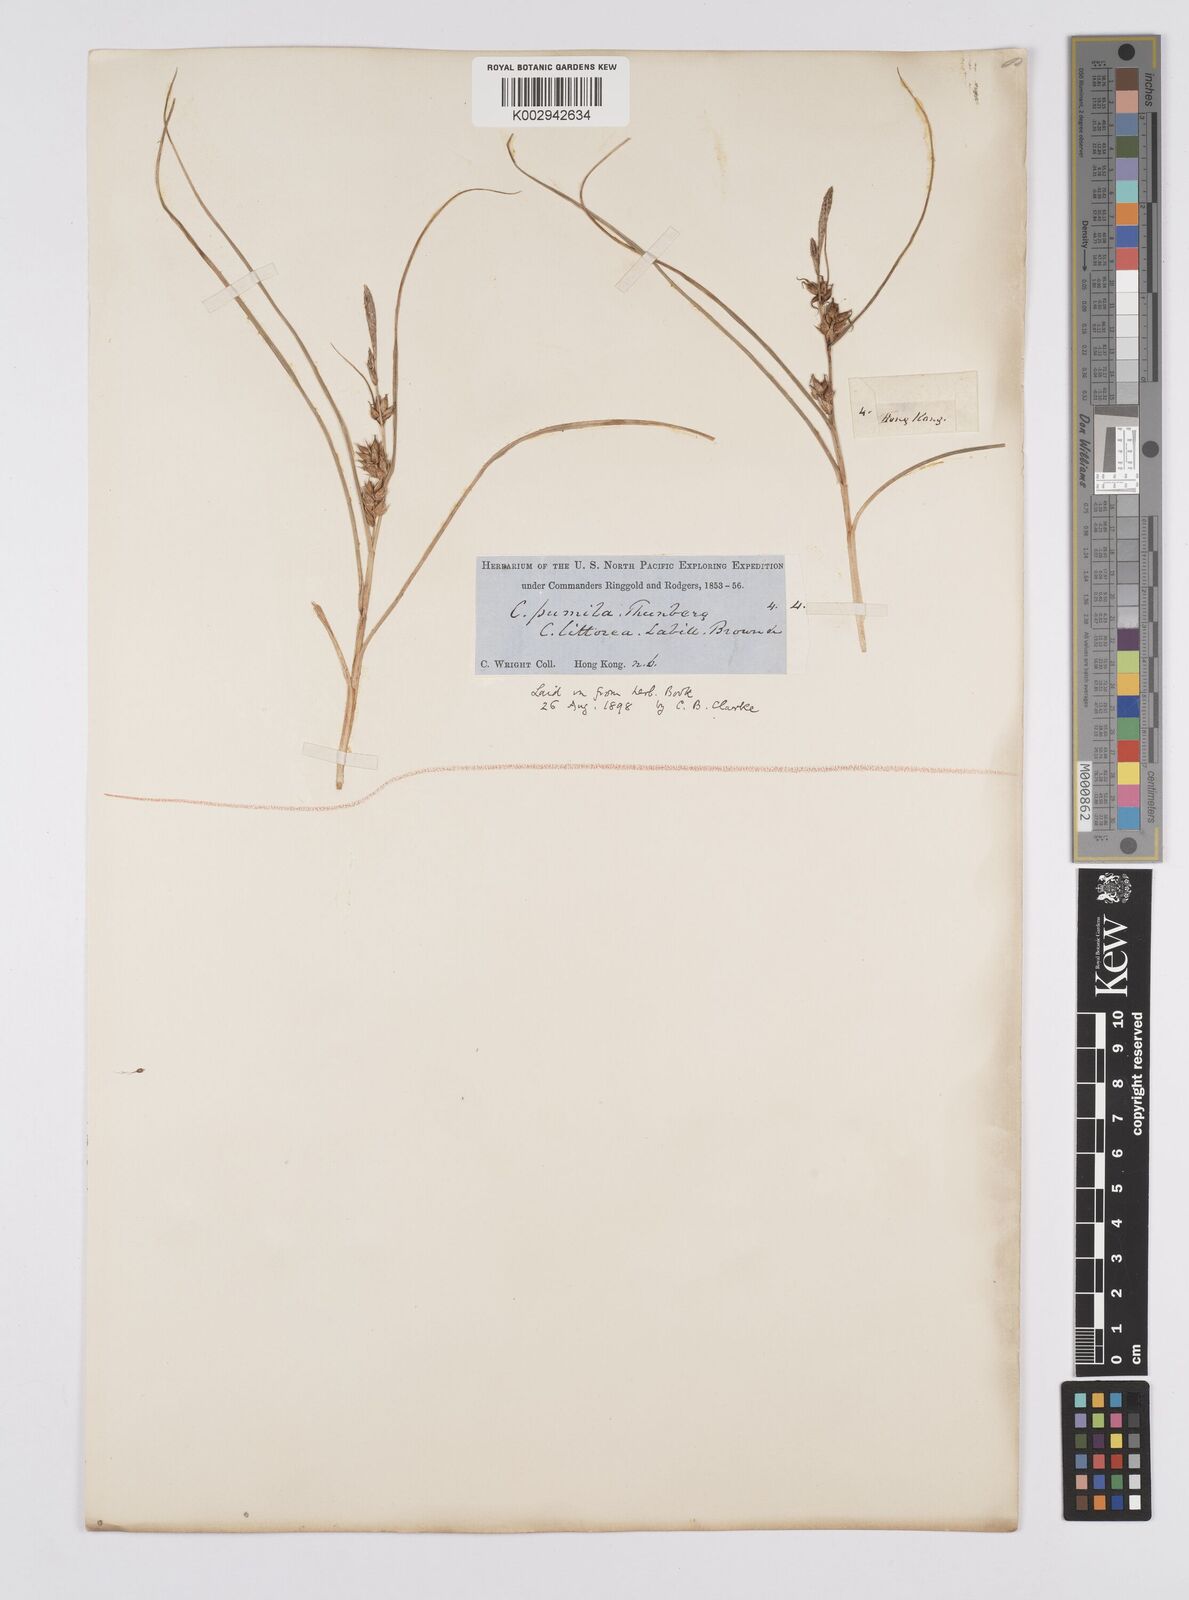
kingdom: Plantae
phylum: Tracheophyta
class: Liliopsida
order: Poales
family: Cyperaceae
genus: Carex
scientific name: Carex pumila
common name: Dwarf sedge
